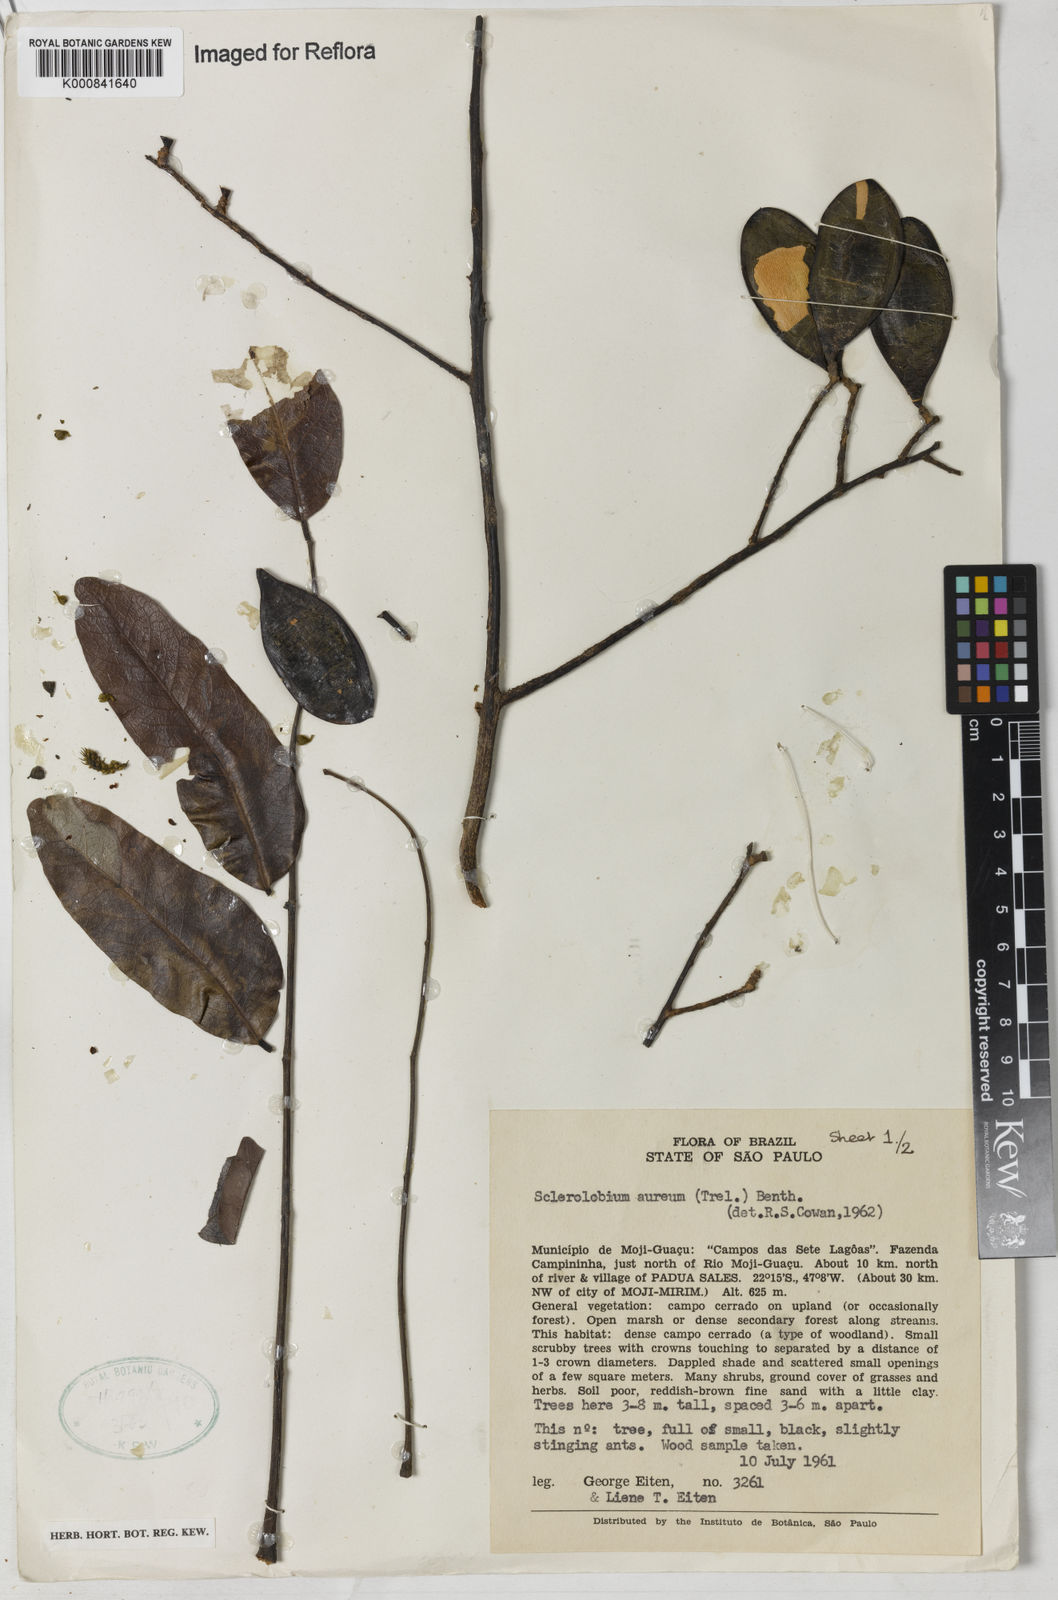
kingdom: Plantae
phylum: Tracheophyta
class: Magnoliopsida
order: Fabales
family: Fabaceae
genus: Tachigali
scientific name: Tachigali aurea
